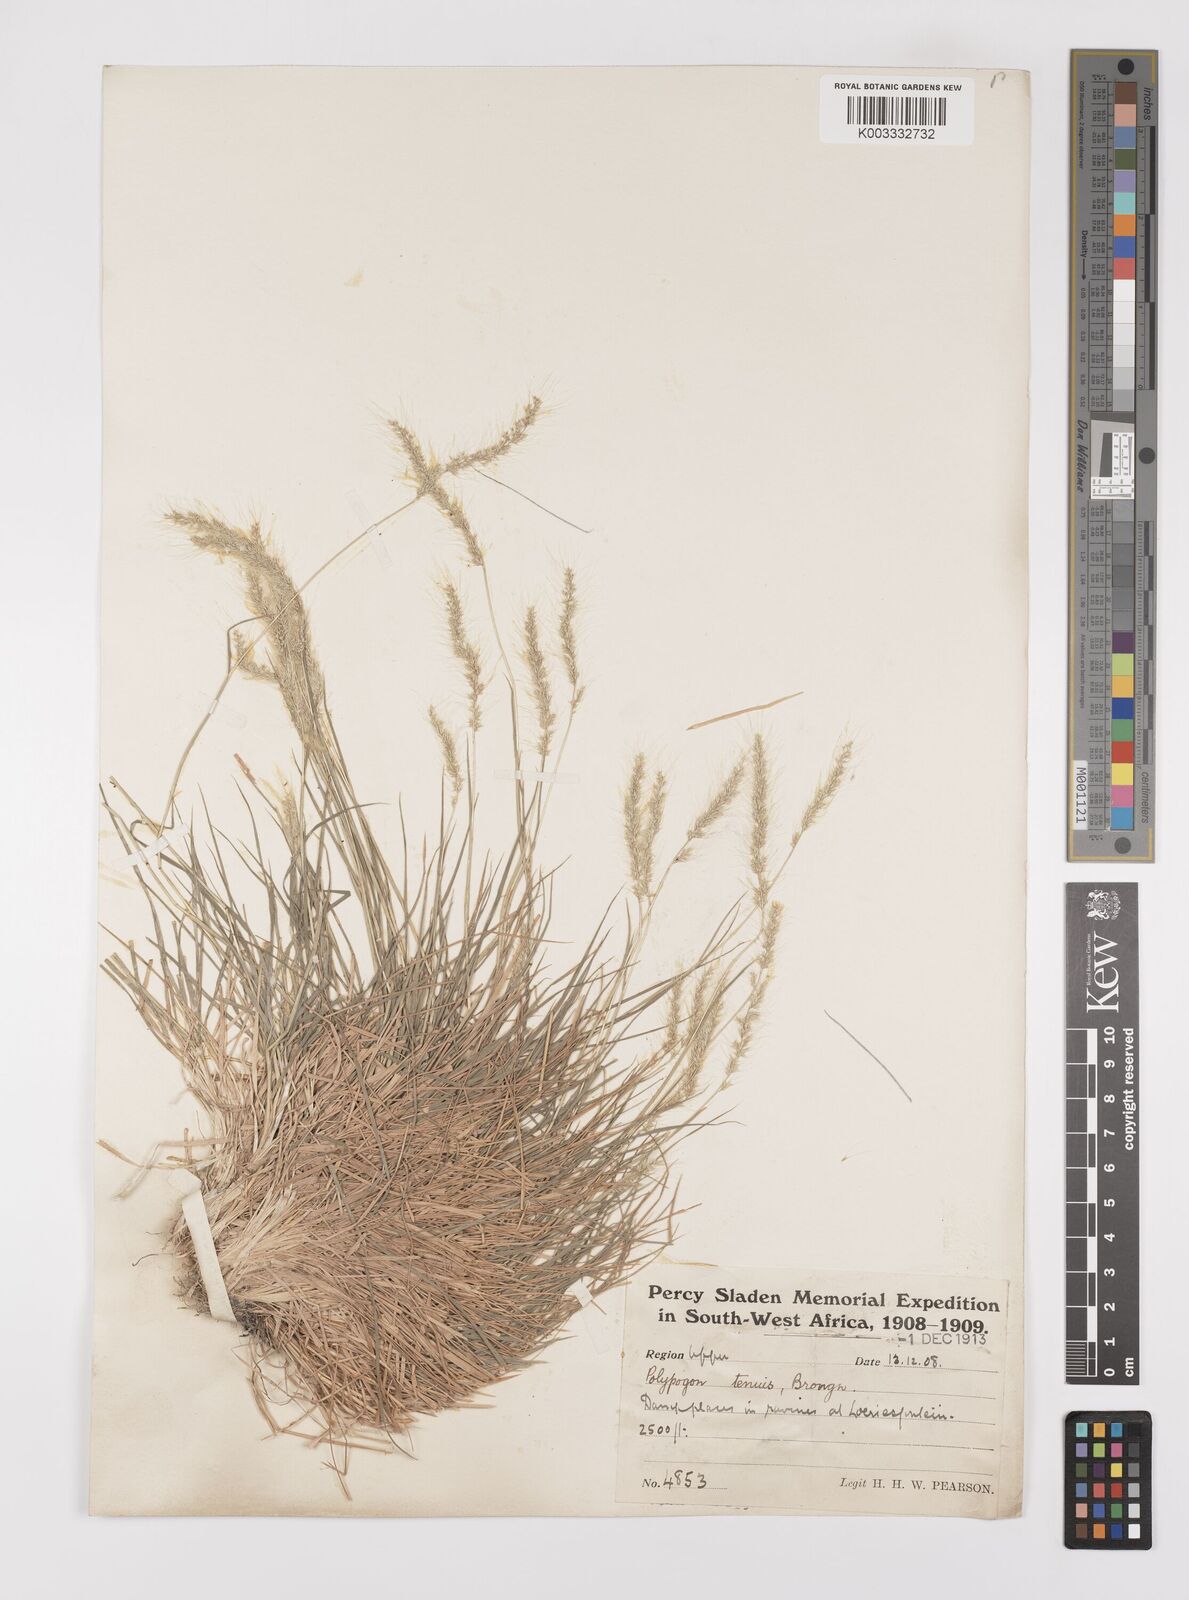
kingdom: Plantae
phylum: Tracheophyta
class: Liliopsida
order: Poales
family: Poaceae
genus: Polypogon
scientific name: Polypogon tenuis
